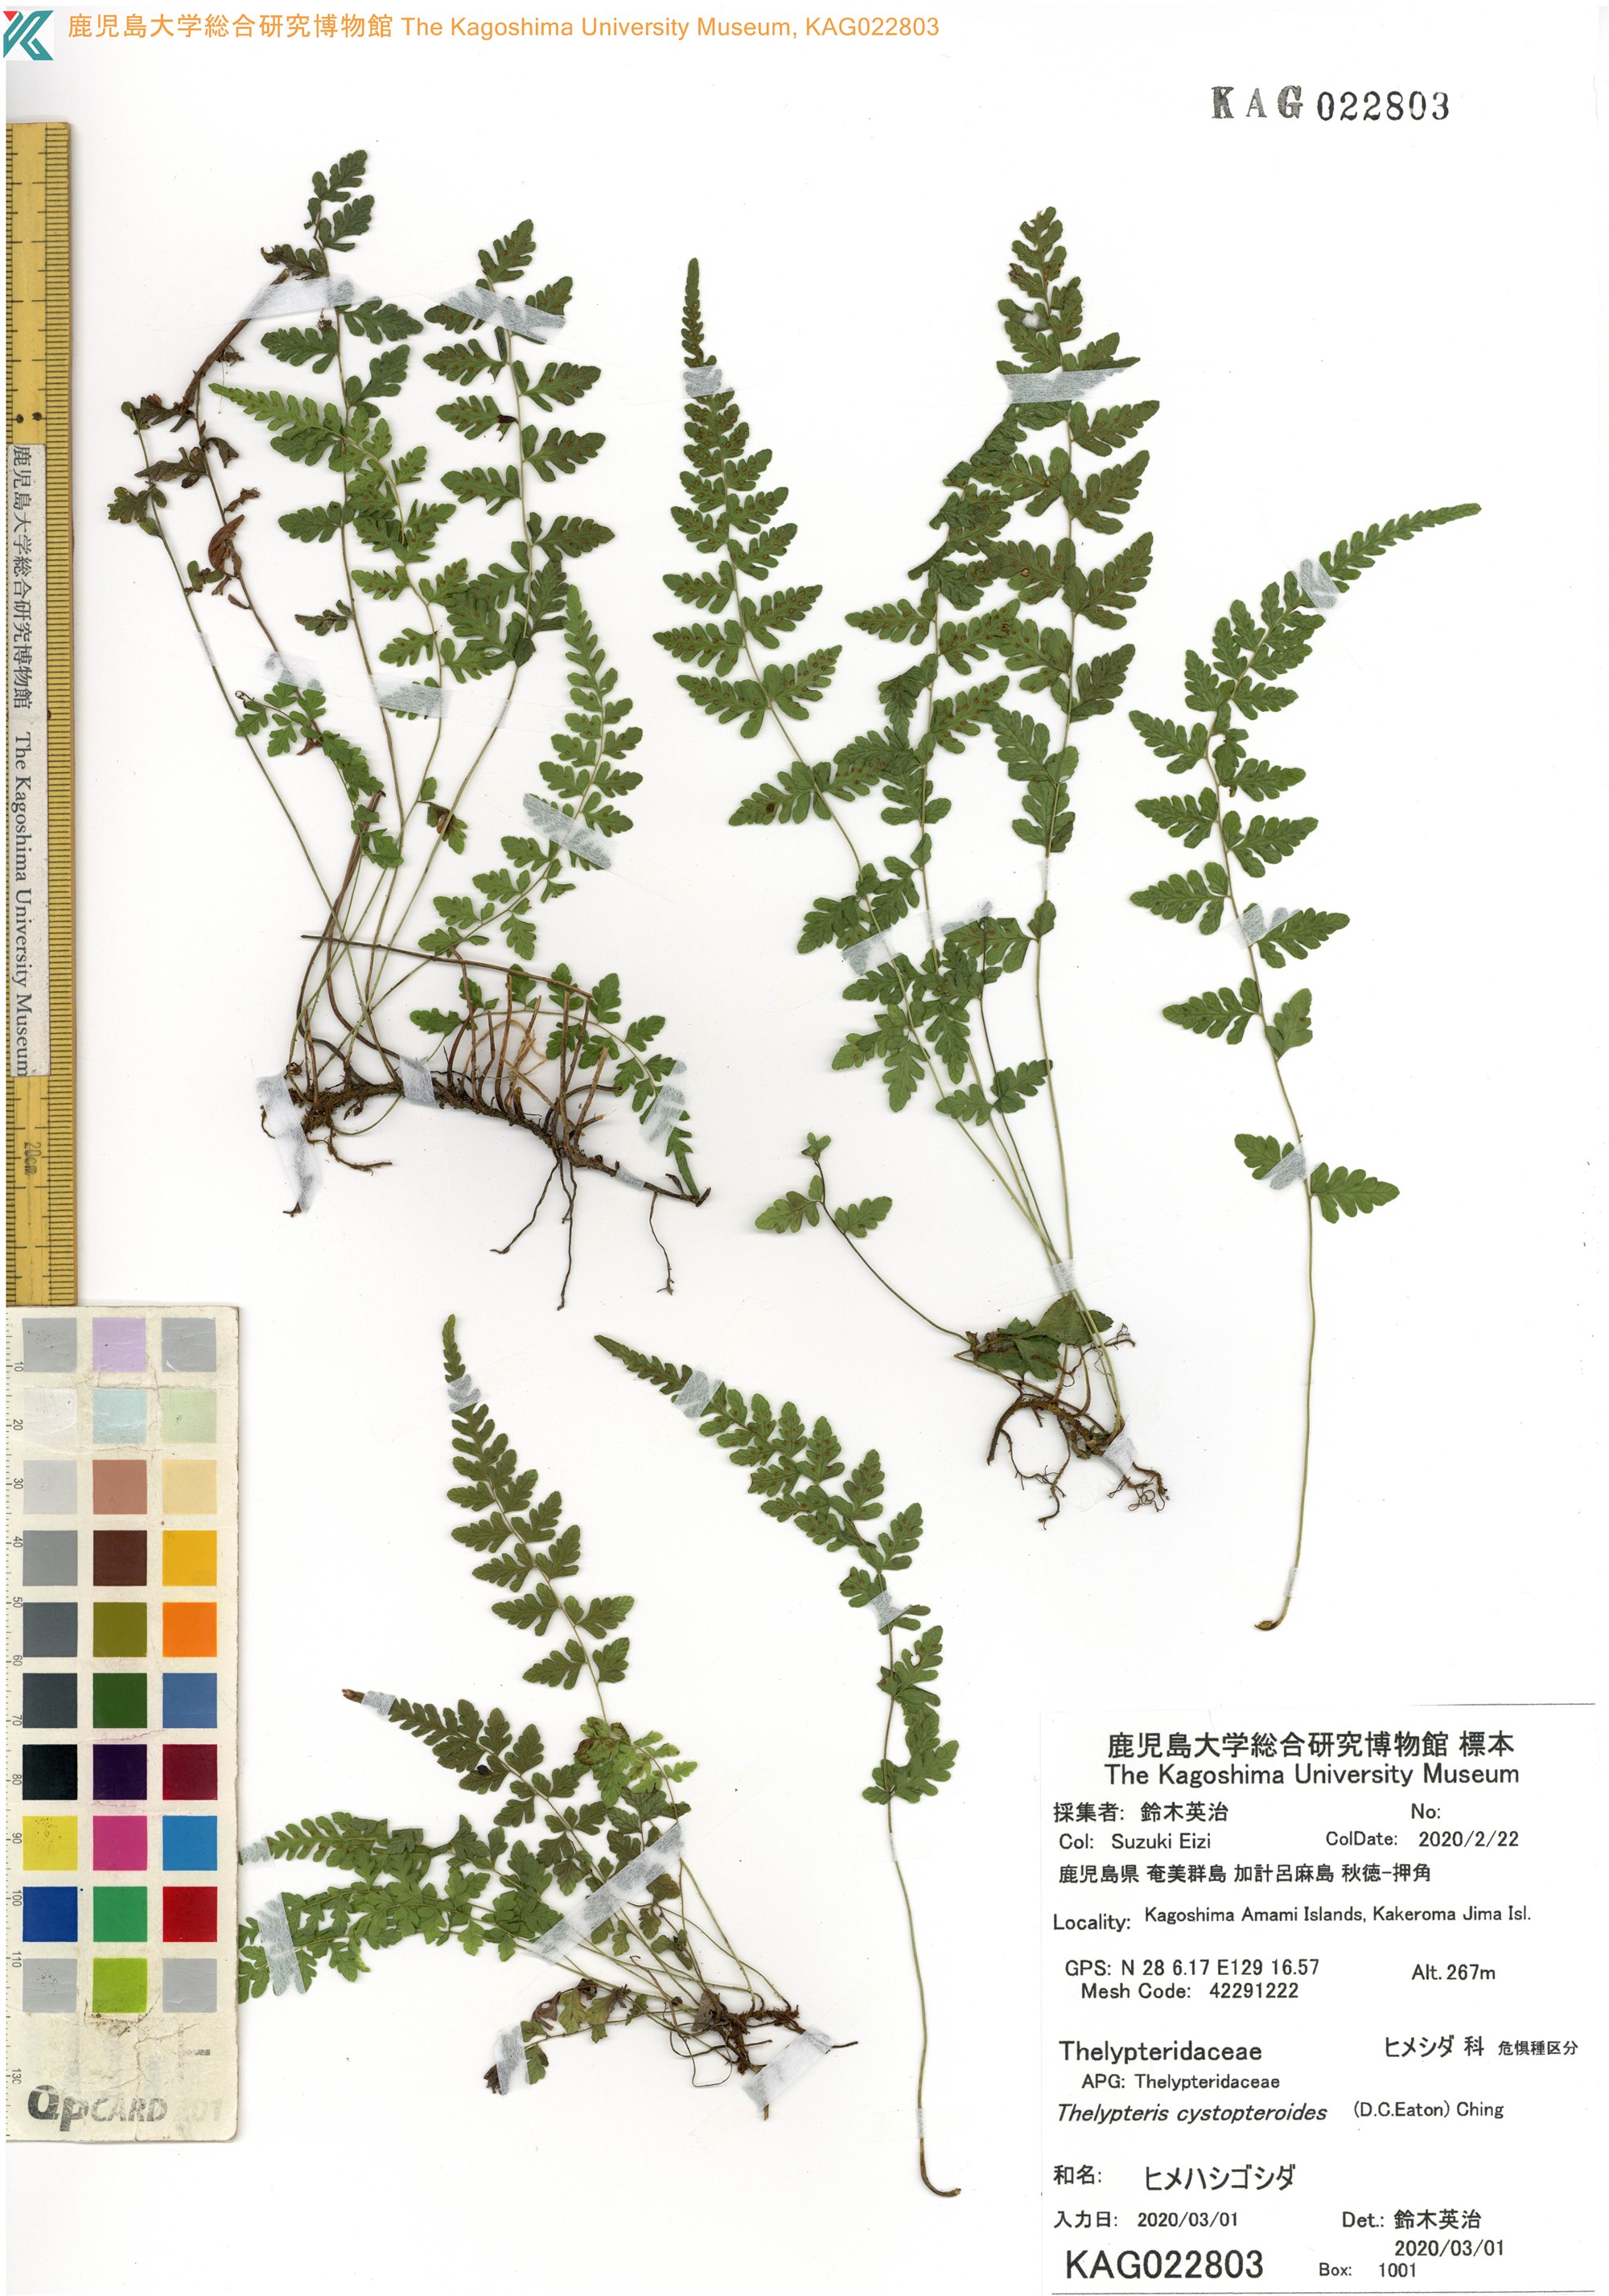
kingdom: Plantae
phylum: Tracheophyta
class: Polypodiopsida
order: Polypodiales
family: Thelypteridaceae
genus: Amauropelta
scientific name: Amauropelta cystopteroides
